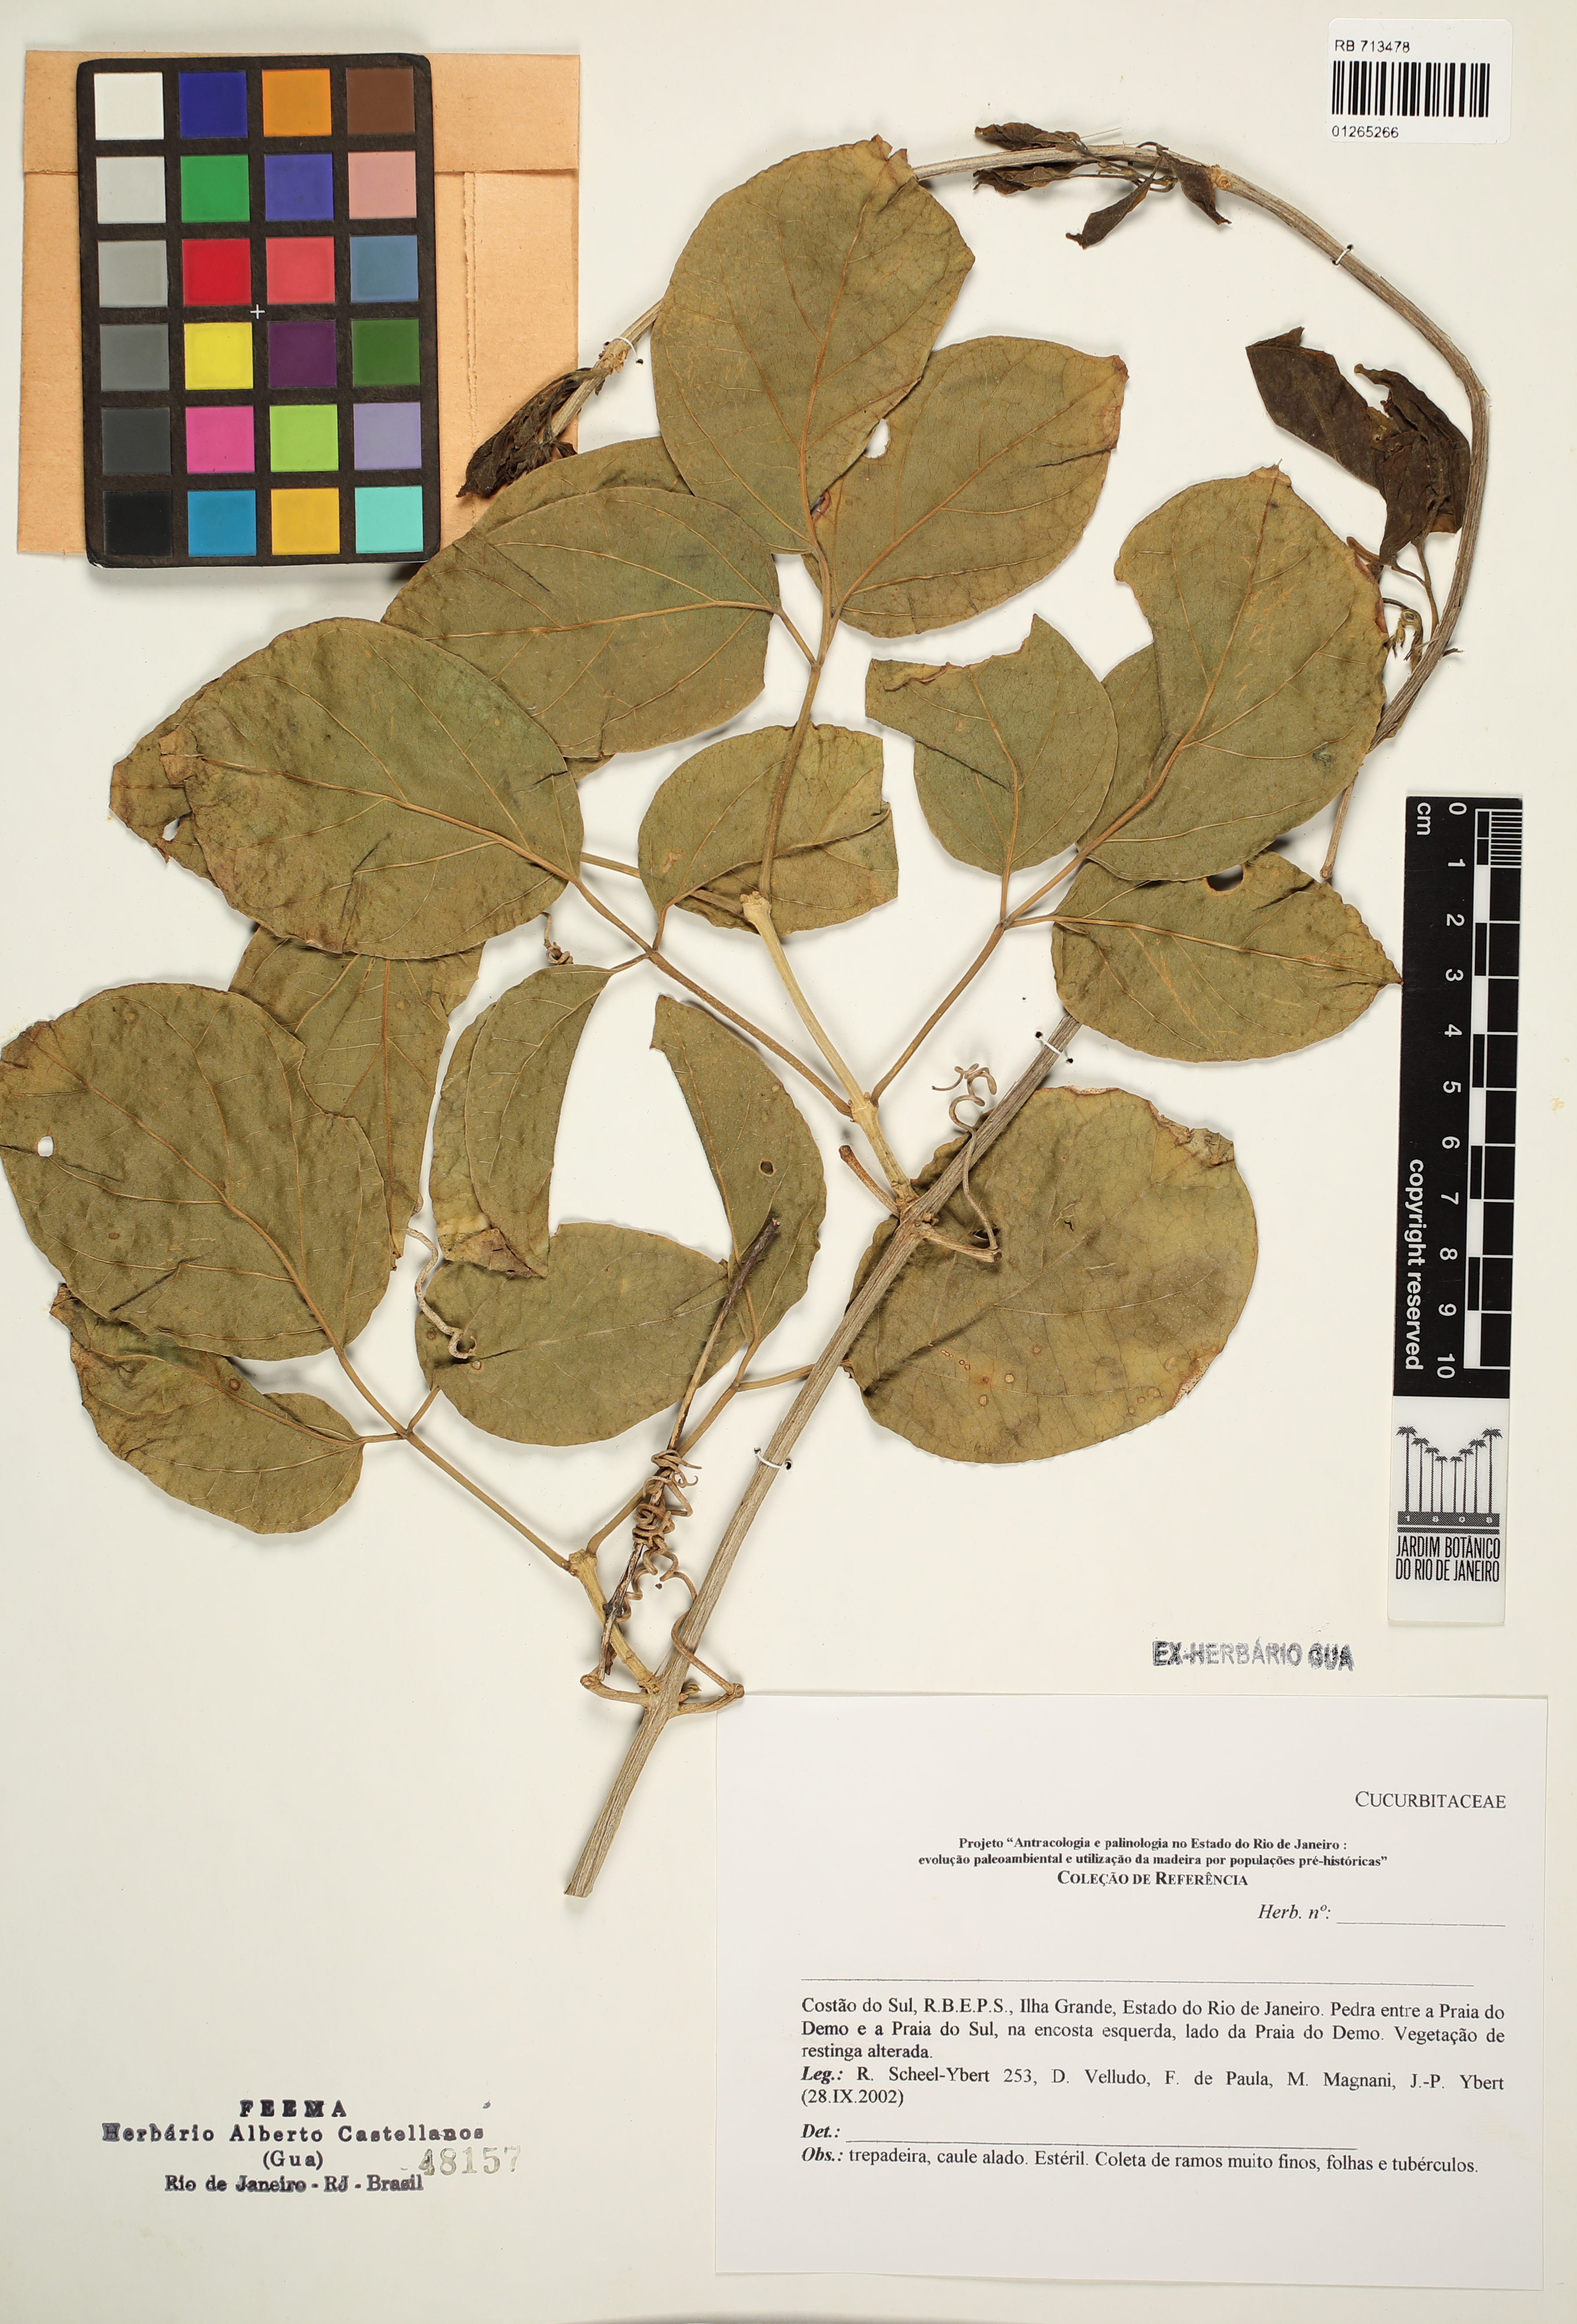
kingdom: Plantae
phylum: Tracheophyta
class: Magnoliopsida
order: Cucurbitales
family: Cucurbitaceae
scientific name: Cucurbitaceae
